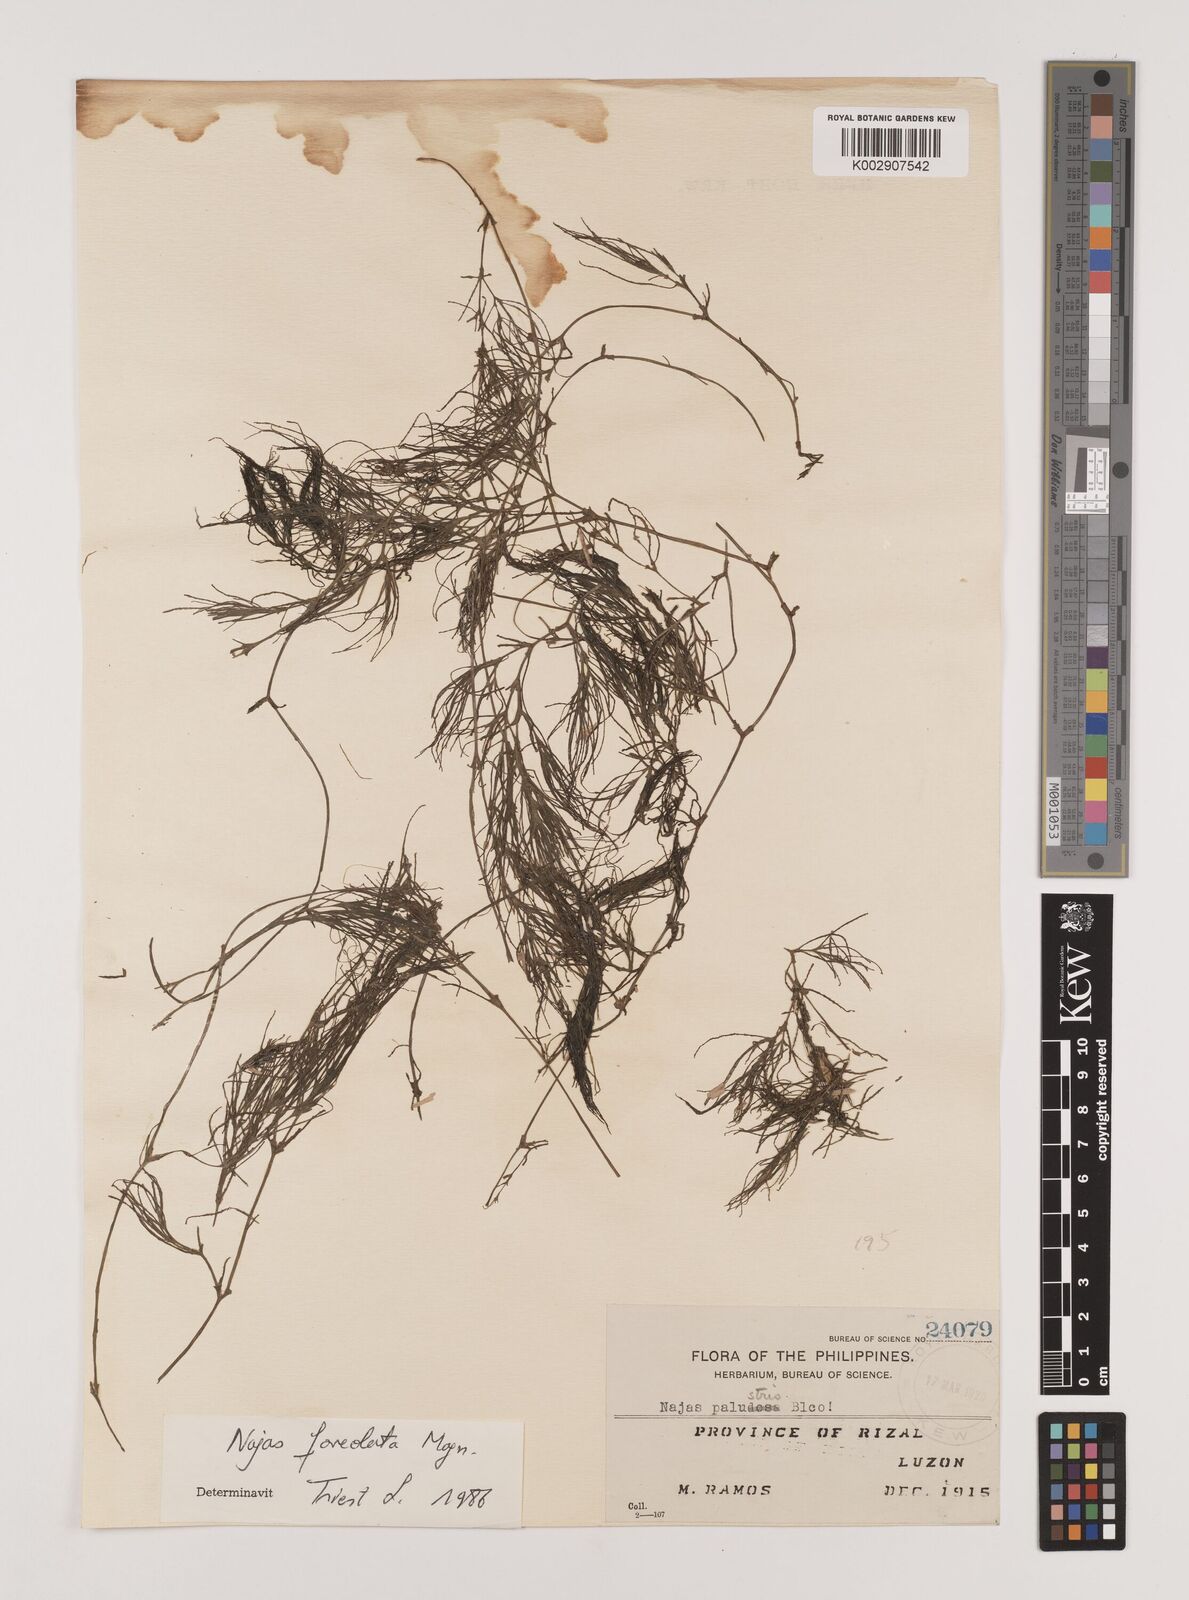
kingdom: Plantae
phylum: Tracheophyta
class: Liliopsida
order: Alismatales
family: Hydrocharitaceae
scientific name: Hydrocharitaceae
